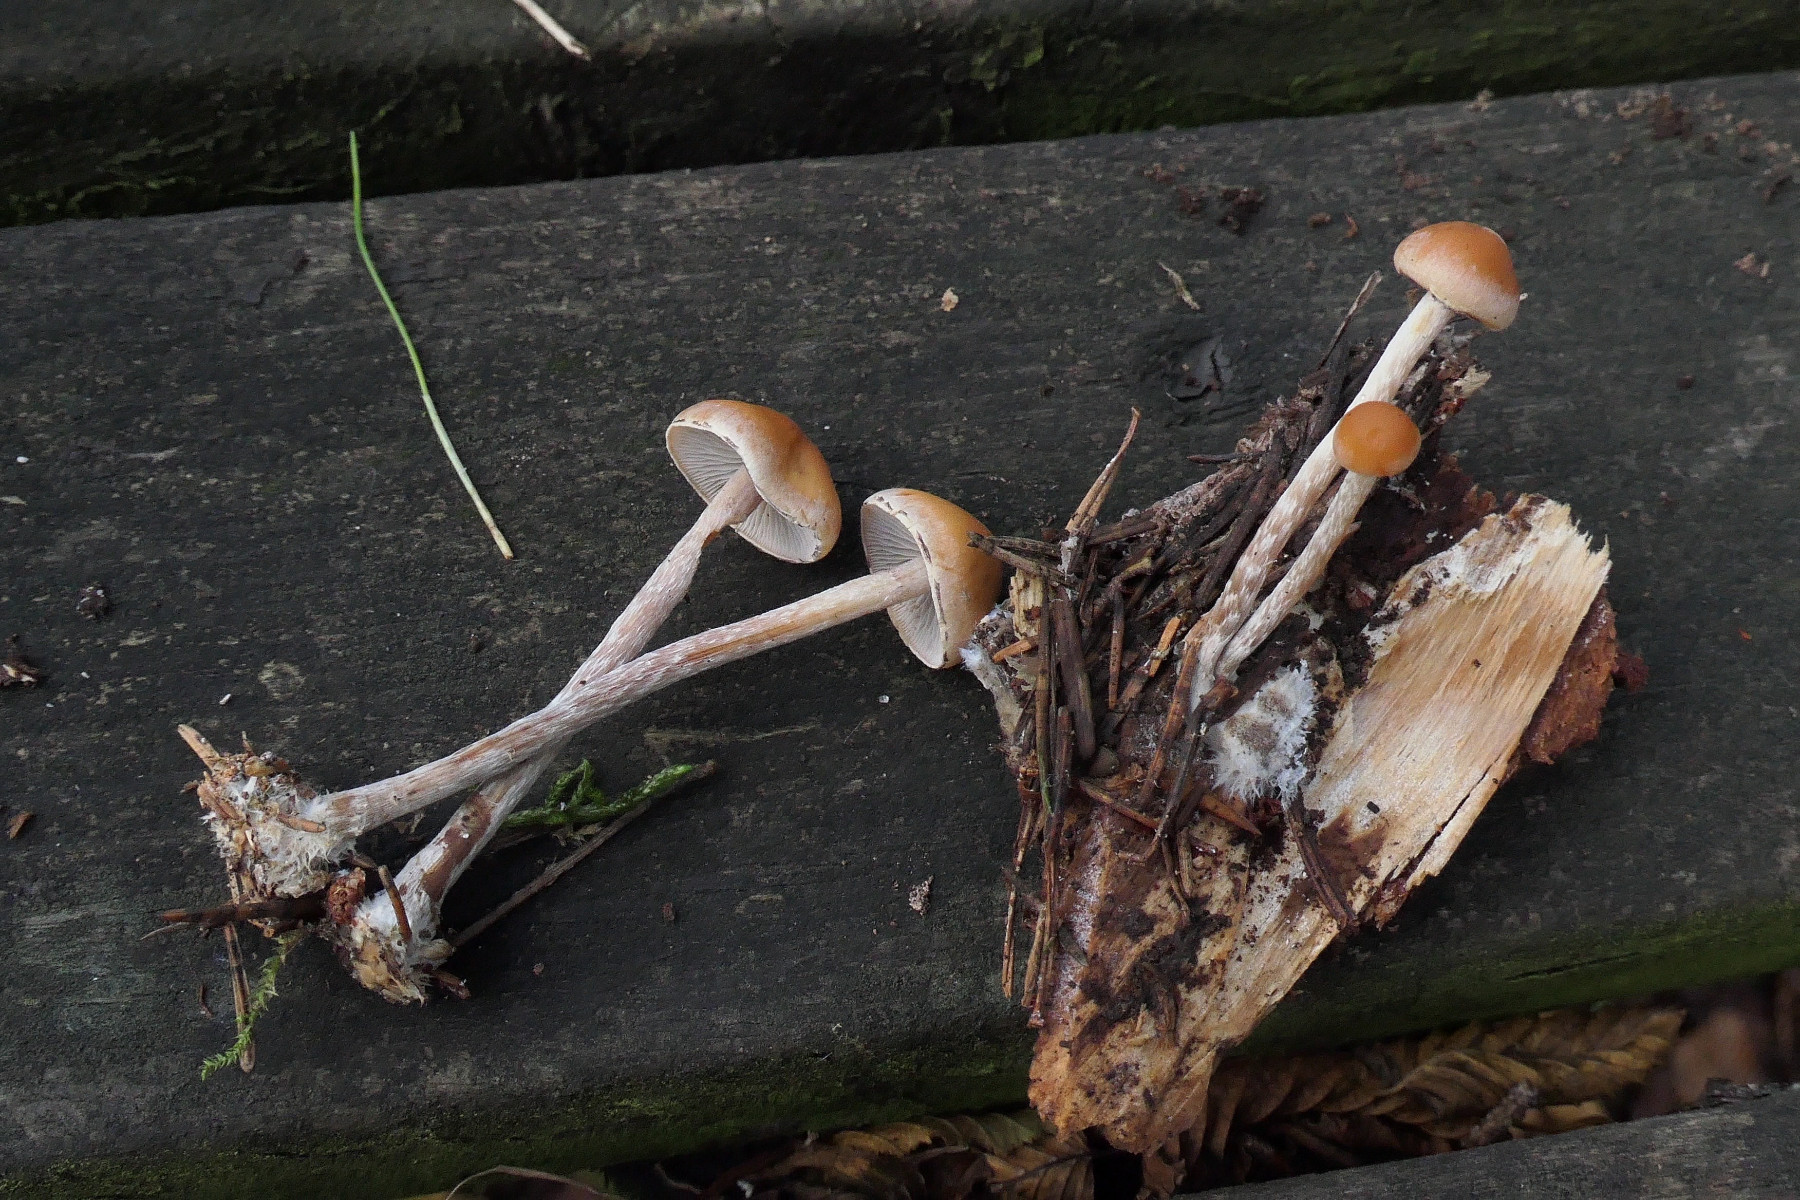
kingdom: Fungi
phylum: Basidiomycota
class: Agaricomycetes
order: Agaricales
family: Strophariaceae
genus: Hypholoma
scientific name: Hypholoma marginatum
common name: enlig svovlhat
